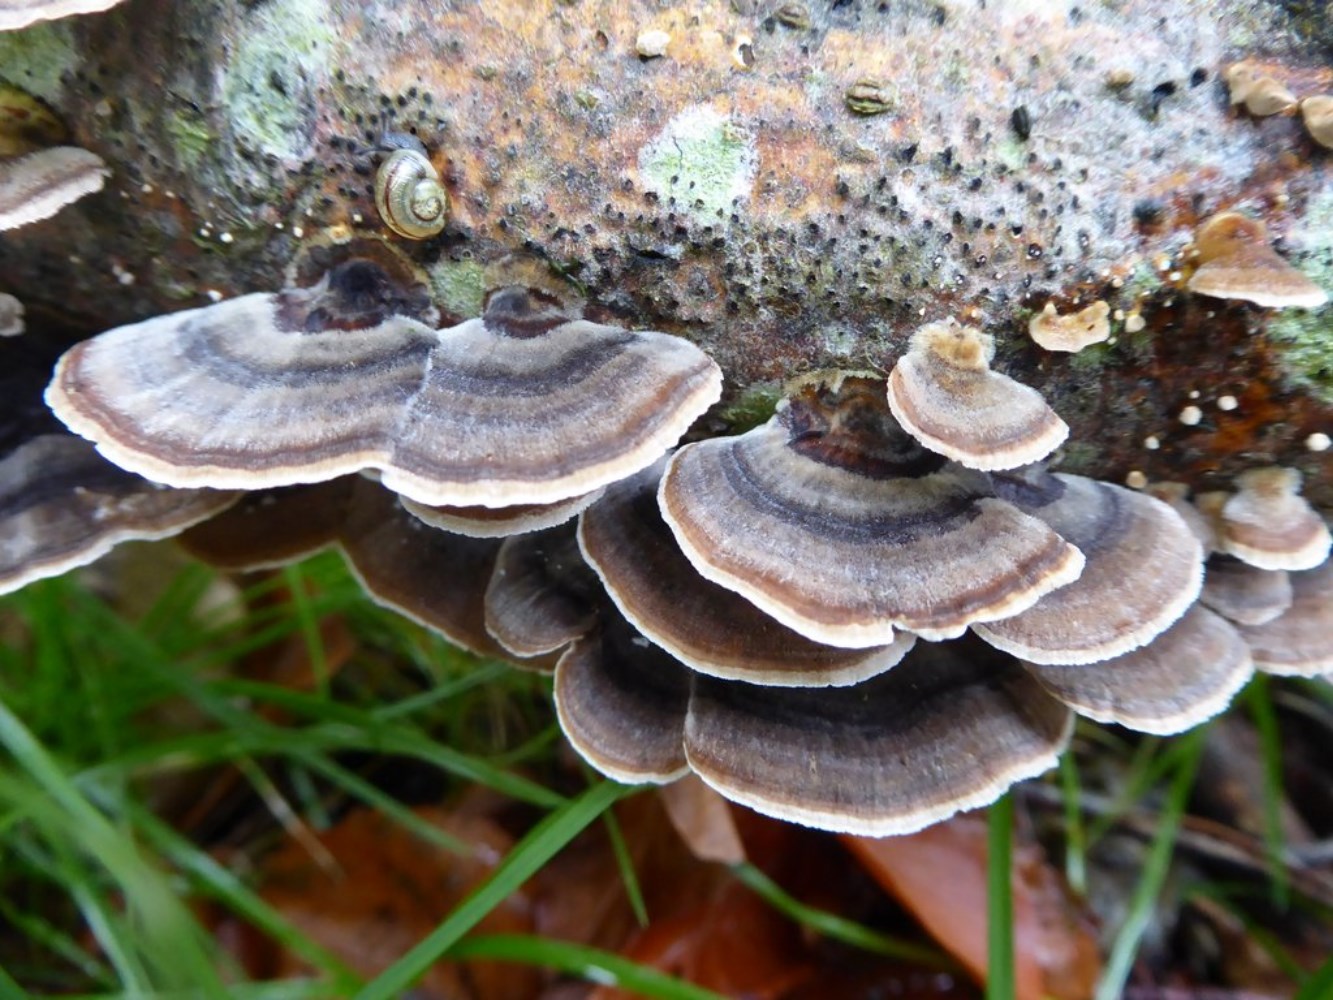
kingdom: Fungi
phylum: Basidiomycota
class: Agaricomycetes
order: Polyporales
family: Polyporaceae
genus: Trametes
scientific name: Trametes versicolor
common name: broget læderporesvamp
